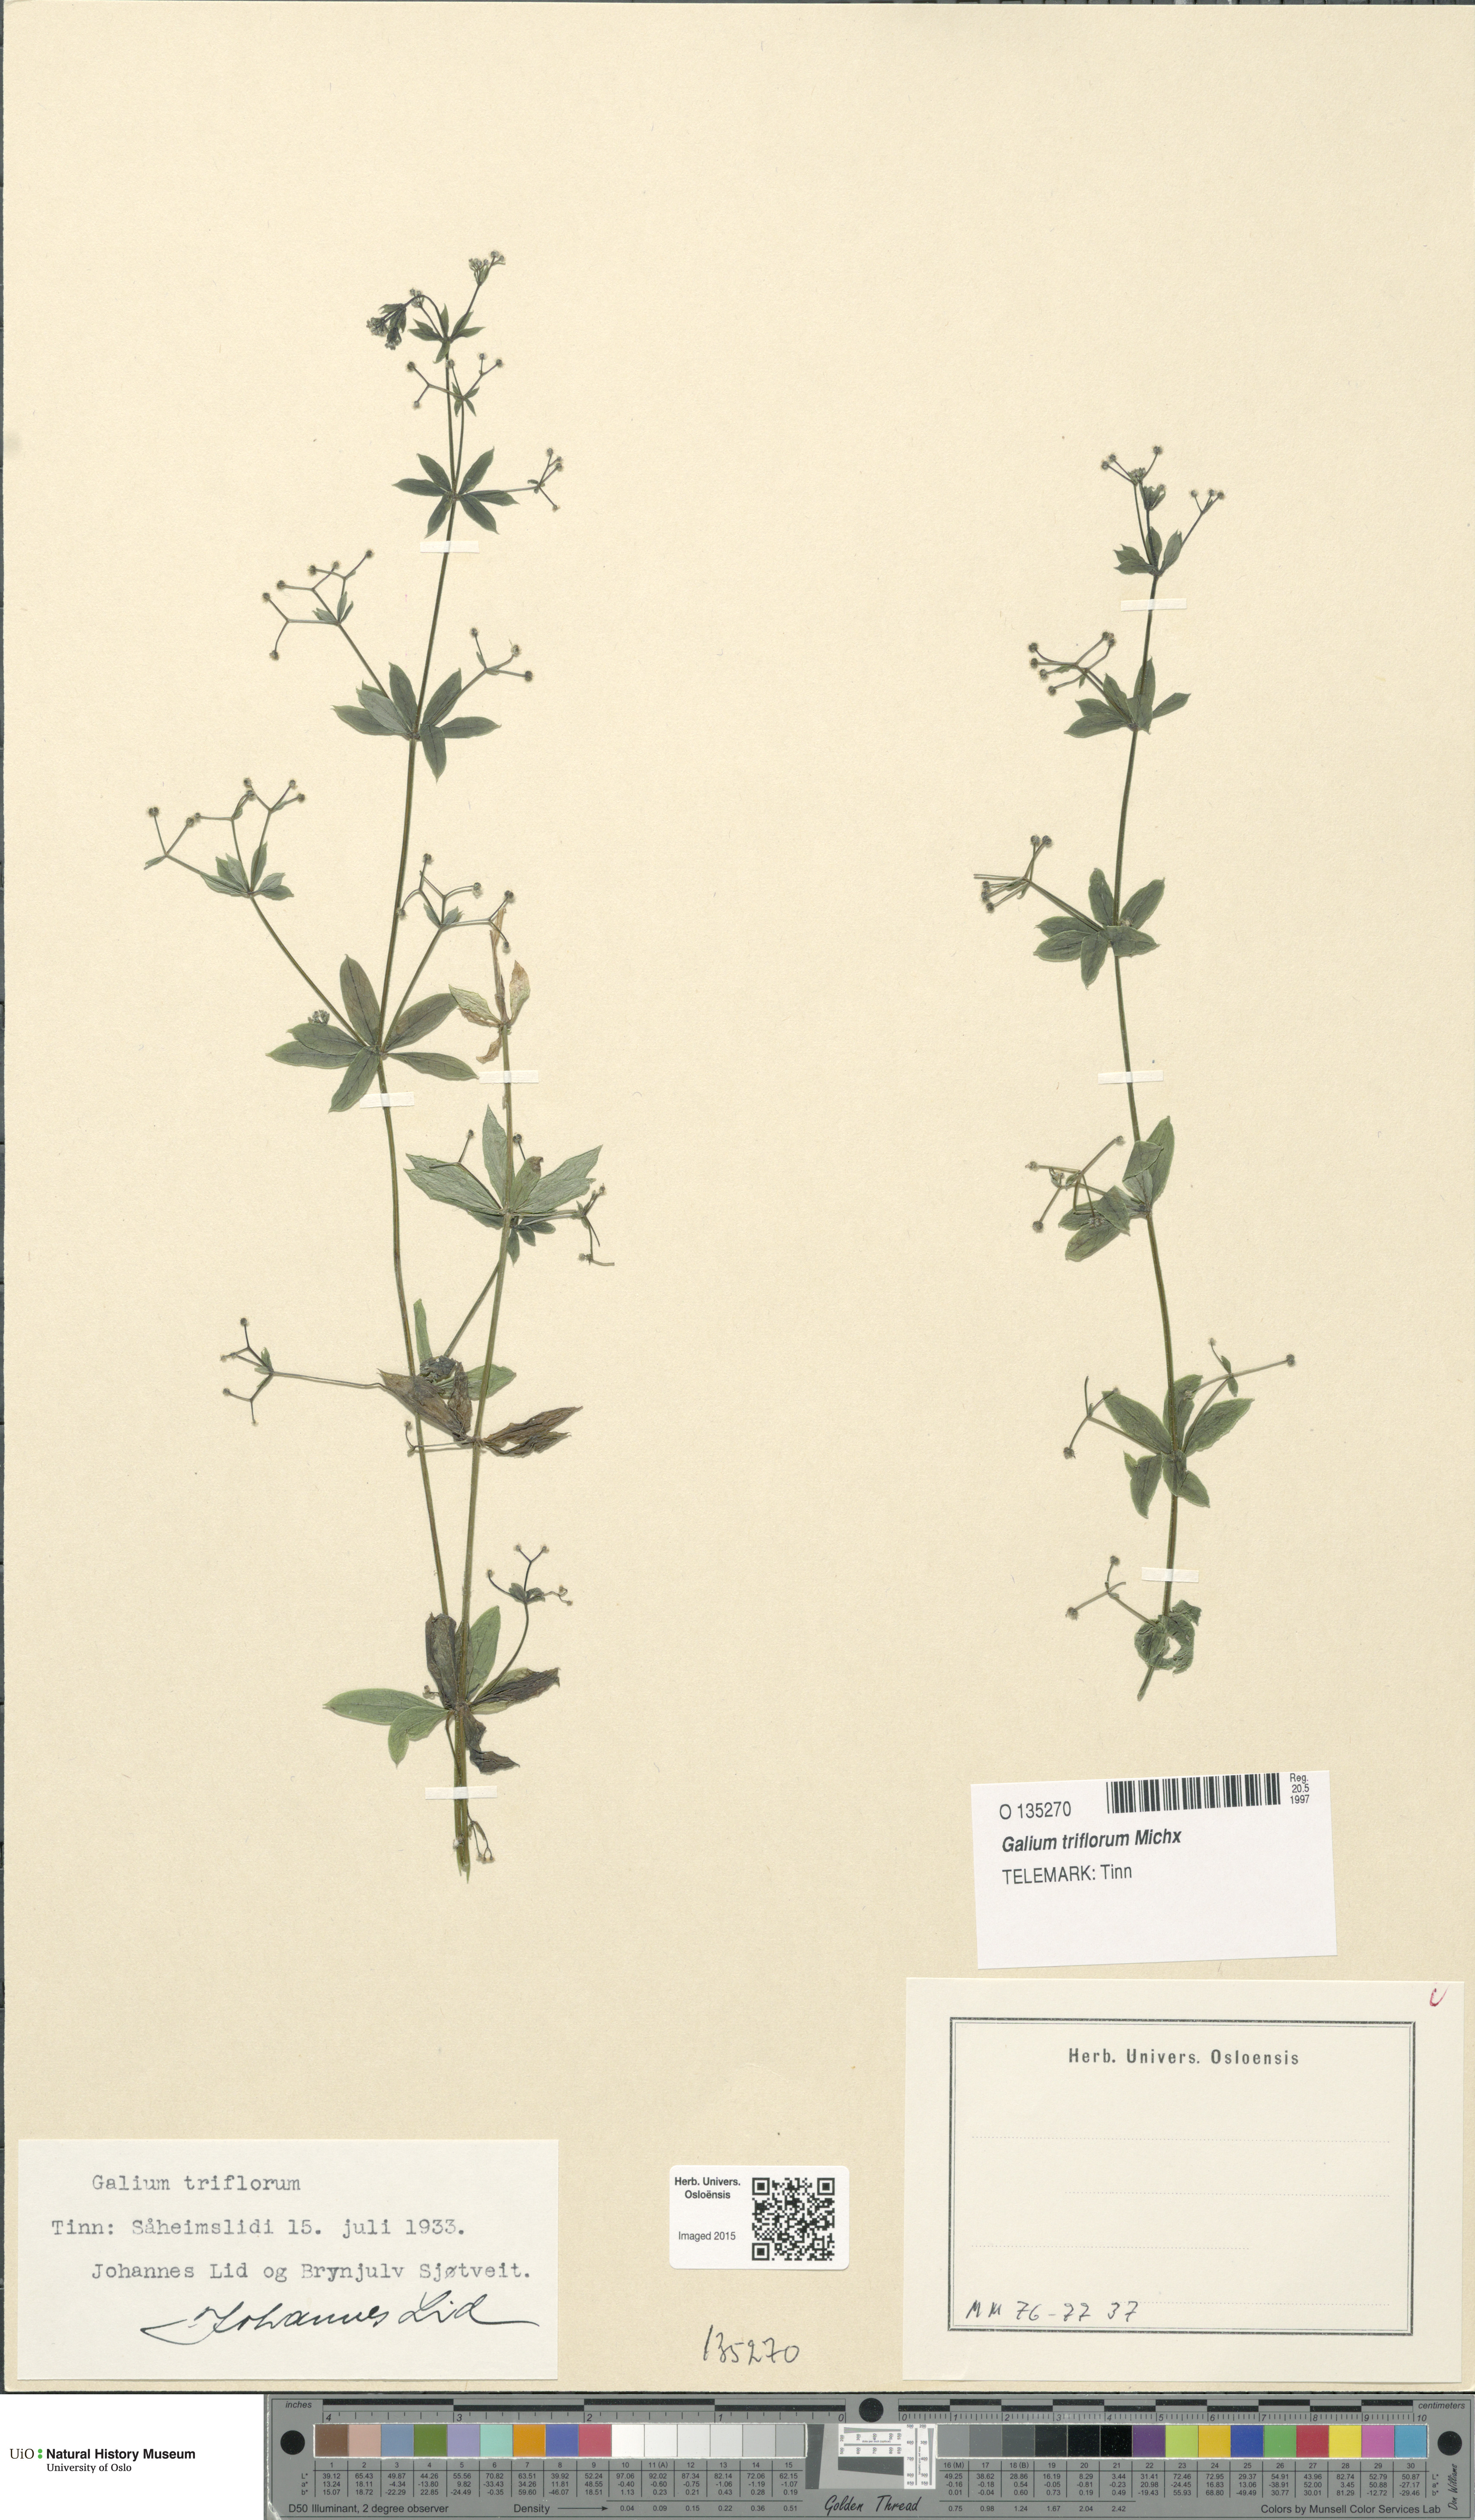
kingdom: Plantae
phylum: Tracheophyta
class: Magnoliopsida
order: Gentianales
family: Rubiaceae
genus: Galium
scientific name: Galium triflorum
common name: Fragrant bedstraw
